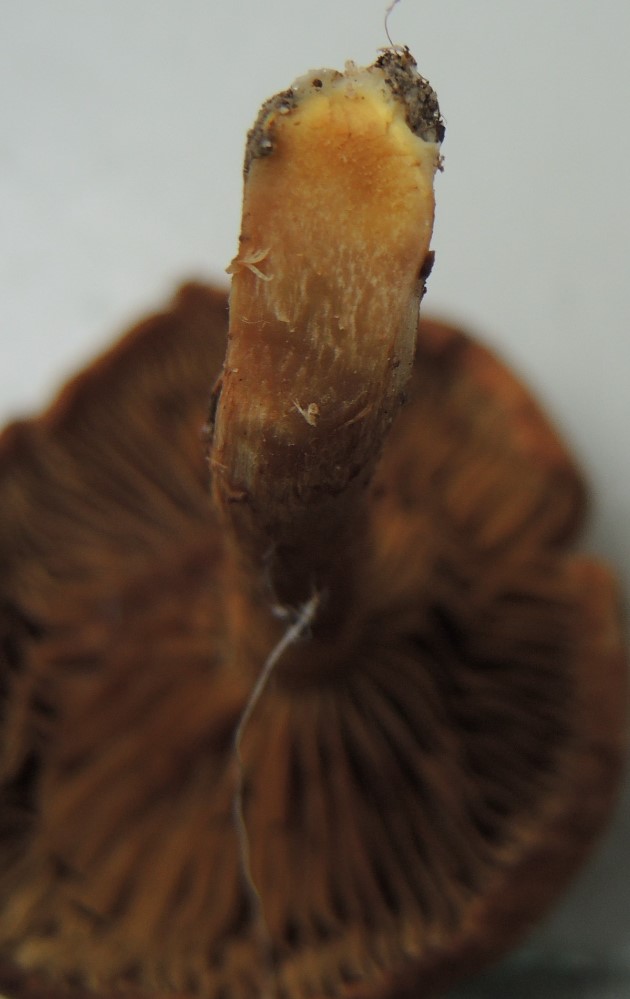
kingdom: Fungi
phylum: Basidiomycota
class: Agaricomycetes
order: Agaricales
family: Inocybaceae
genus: Inocybe
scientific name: Inocybe
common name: trævlhat
